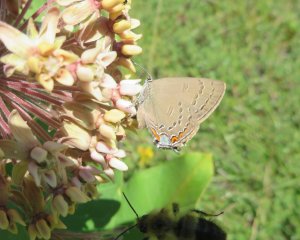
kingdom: Animalia
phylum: Arthropoda
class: Insecta
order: Lepidoptera
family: Lycaenidae
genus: Satyrium
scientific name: Satyrium edwardsii
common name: Edwards' Hairstreak
